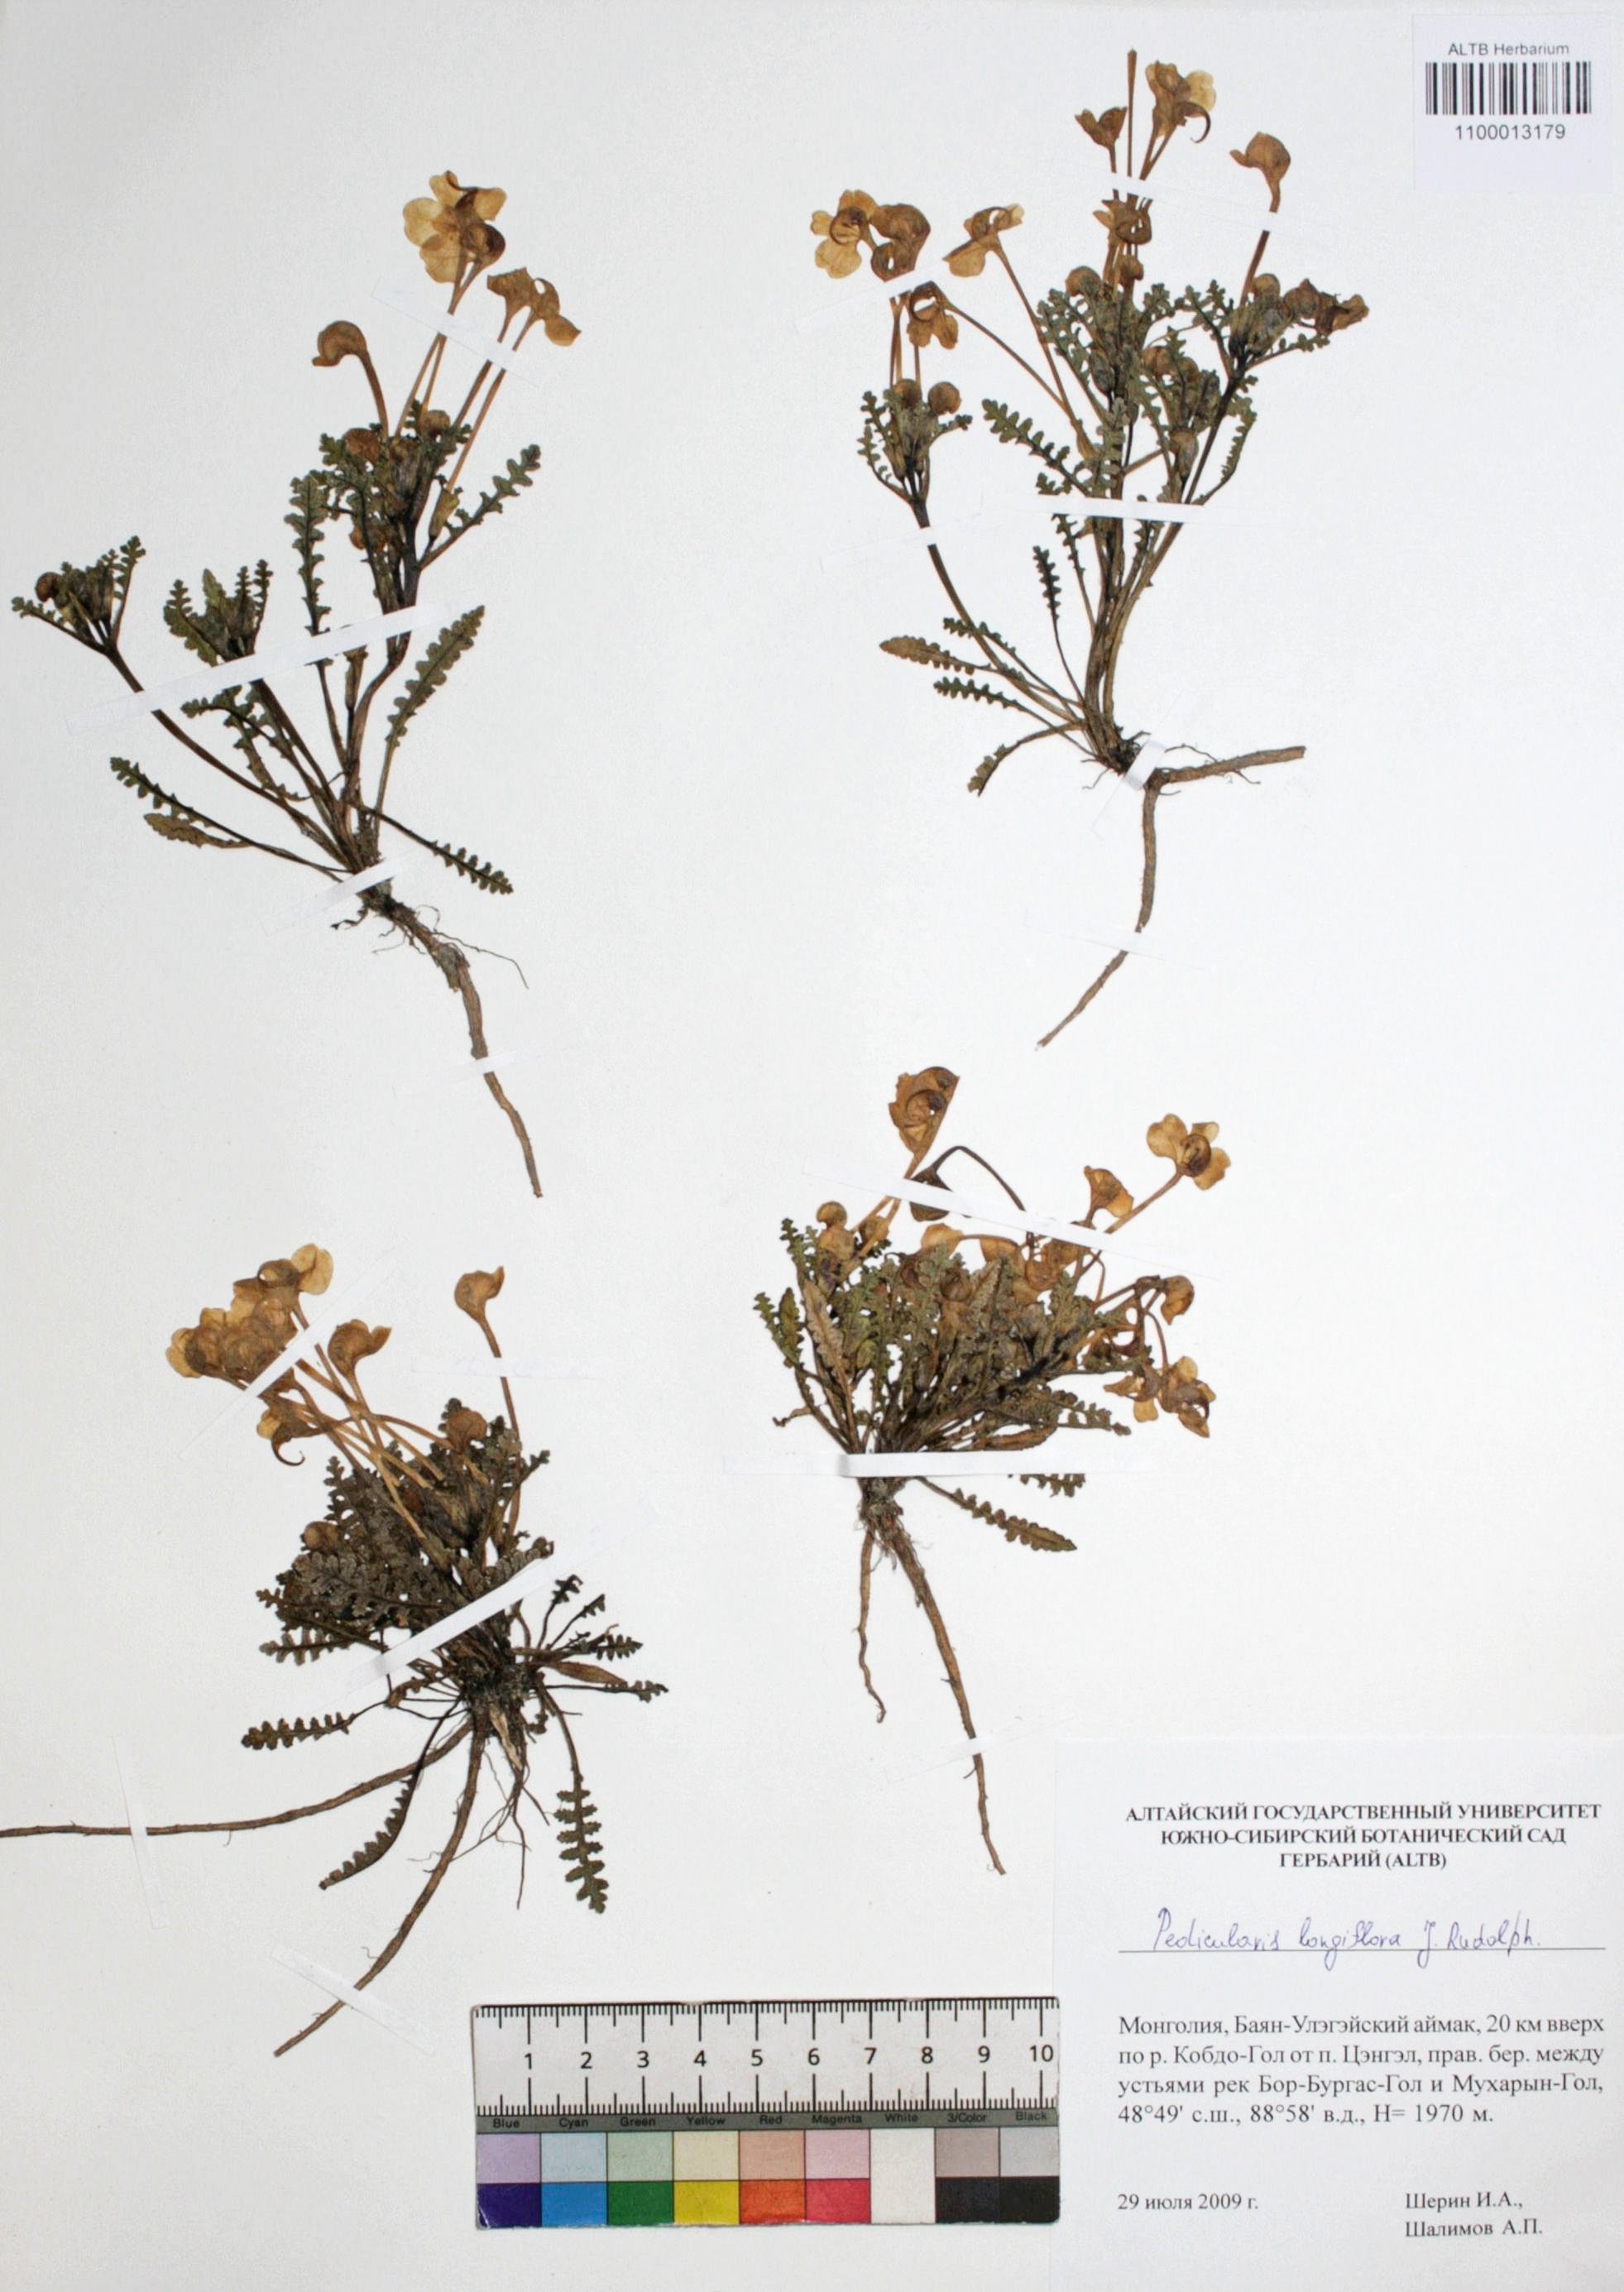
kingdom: Plantae
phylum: Tracheophyta
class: Magnoliopsida
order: Lamiales
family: Orobanchaceae
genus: Pedicularis
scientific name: Pedicularis longiflora
